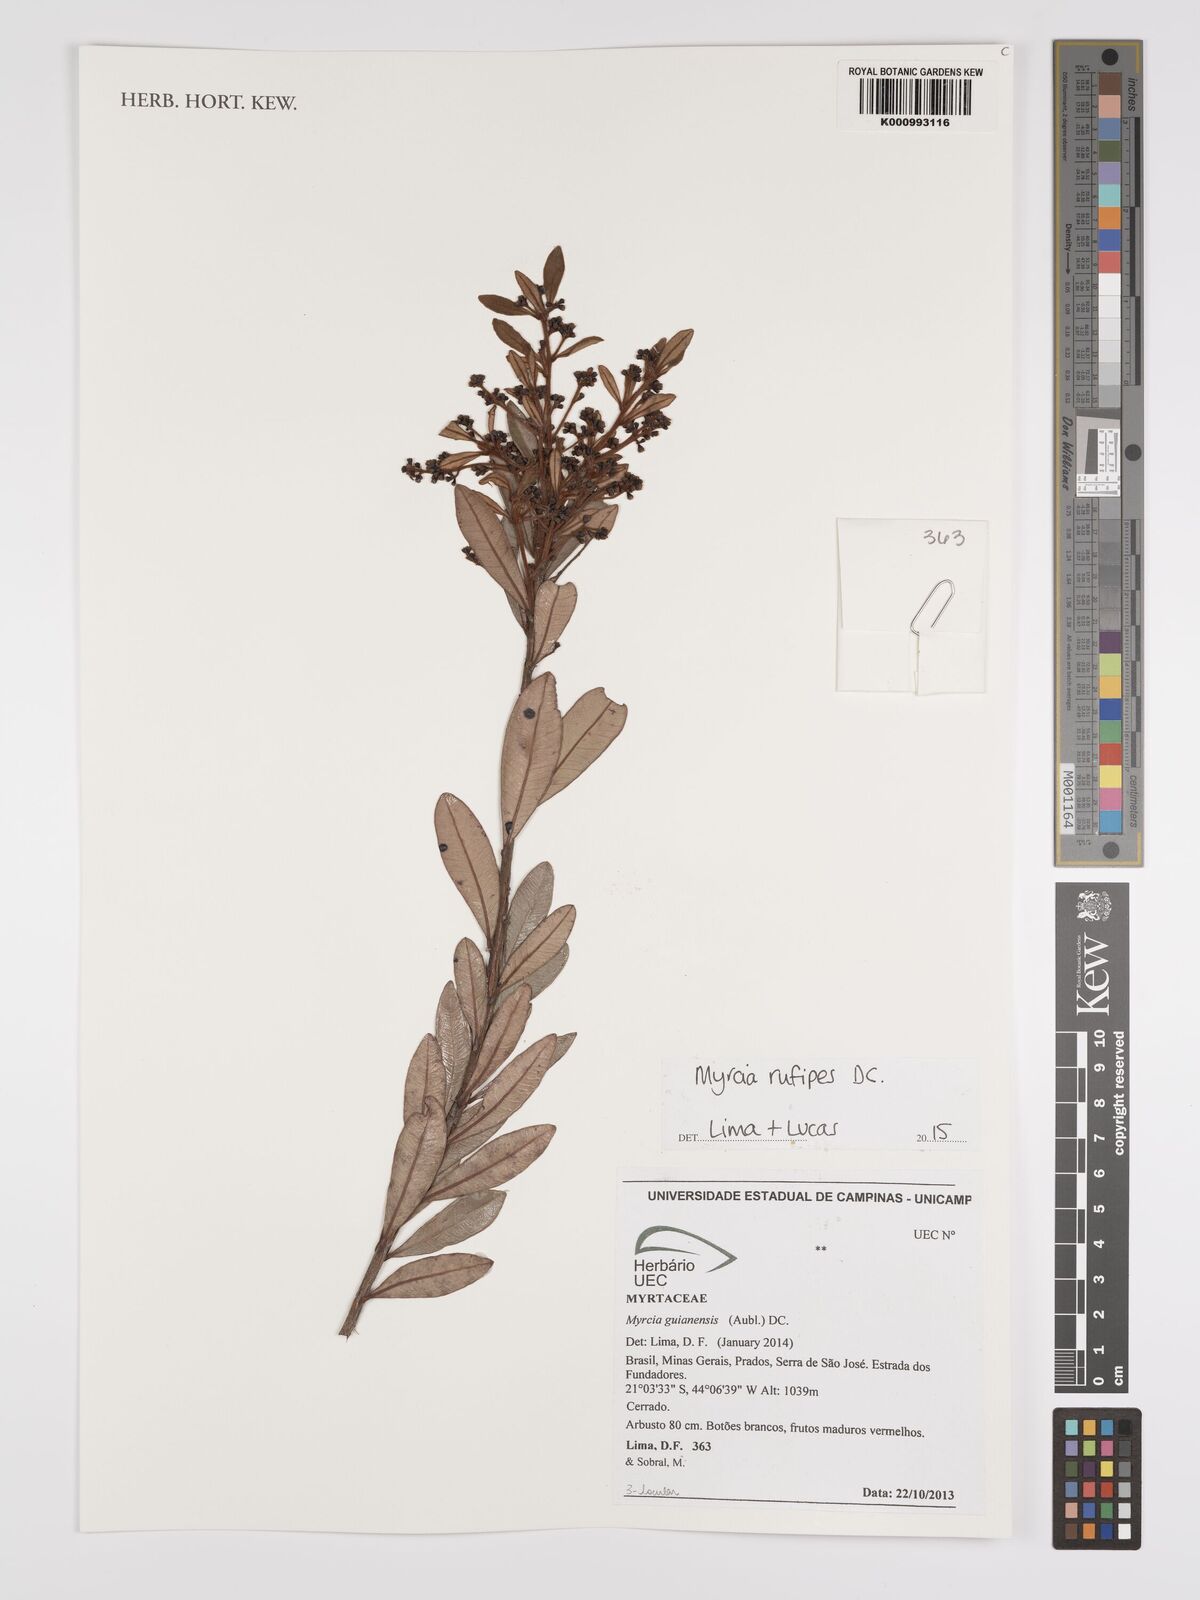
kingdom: Plantae
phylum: Tracheophyta
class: Magnoliopsida
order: Myrtales
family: Myrtaceae
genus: Myrcia
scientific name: Myrcia rufipes
